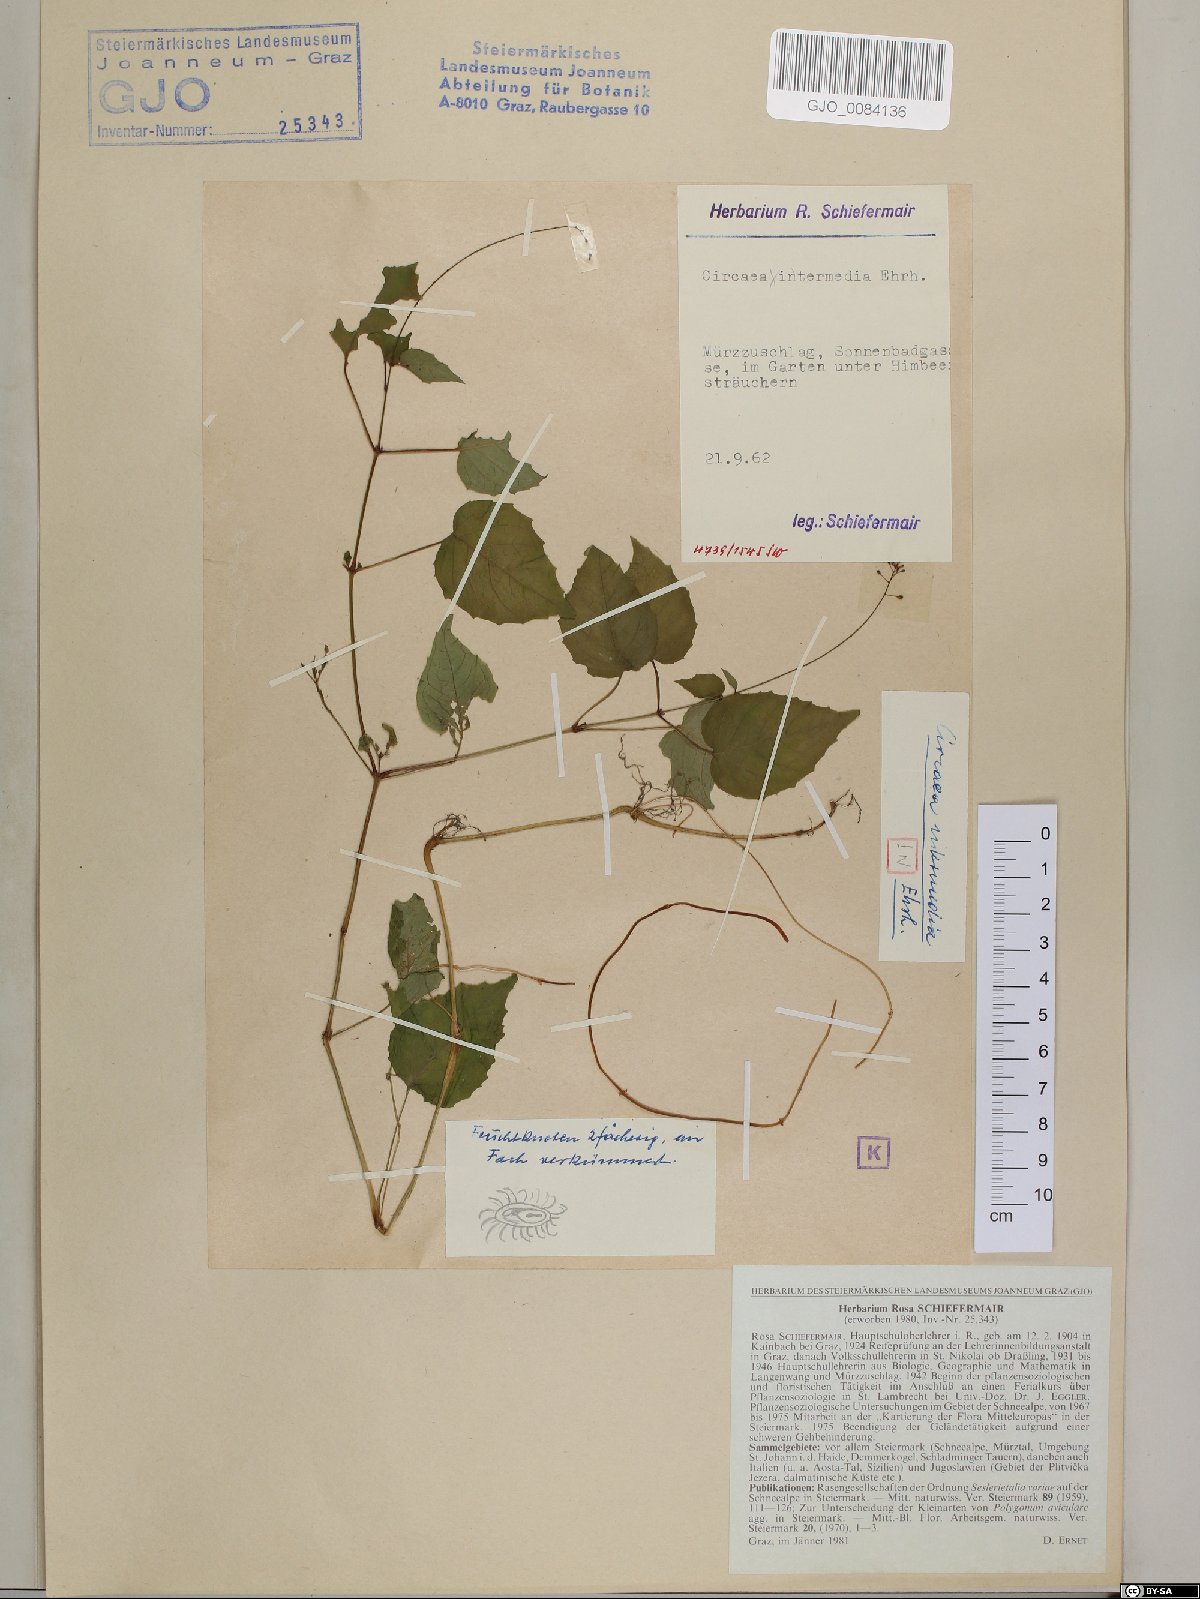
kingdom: Plantae
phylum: Tracheophyta
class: Magnoliopsida
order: Myrtales
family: Onagraceae
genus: Circaea
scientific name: Circaea intermedia
